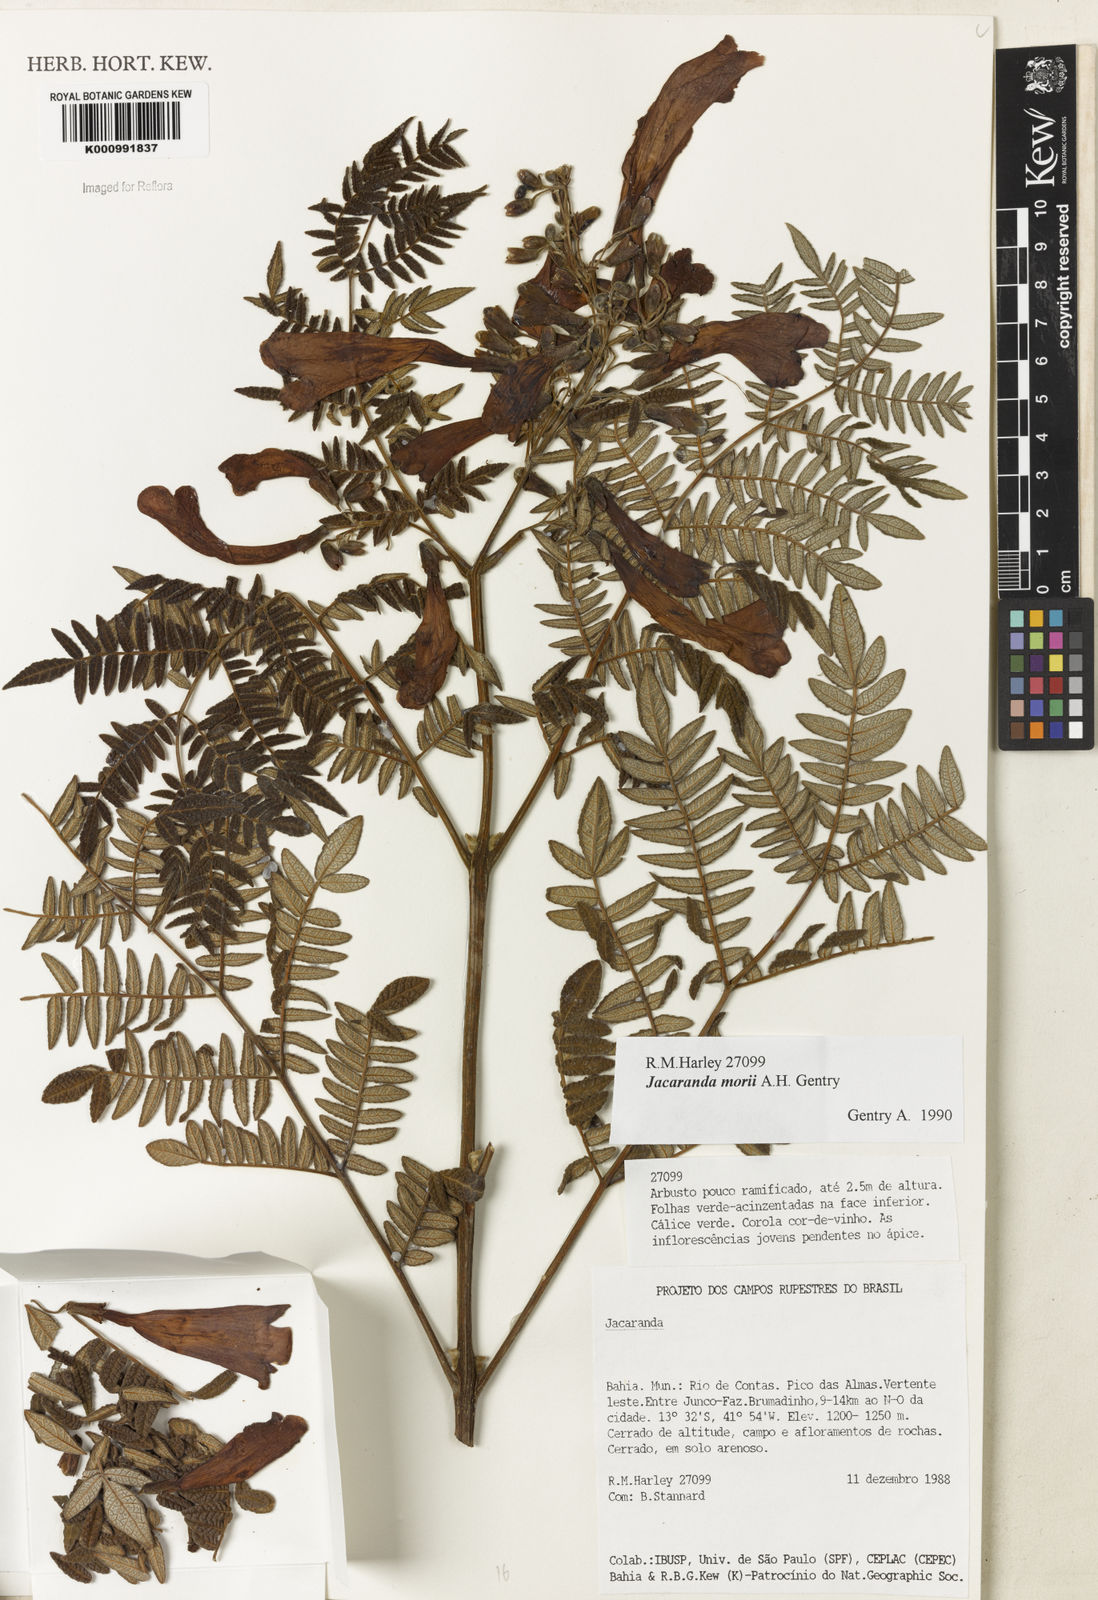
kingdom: Plantae
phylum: Tracheophyta
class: Magnoliopsida
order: Lamiales
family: Bignoniaceae
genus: Jacaranda
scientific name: Jacaranda ulei
